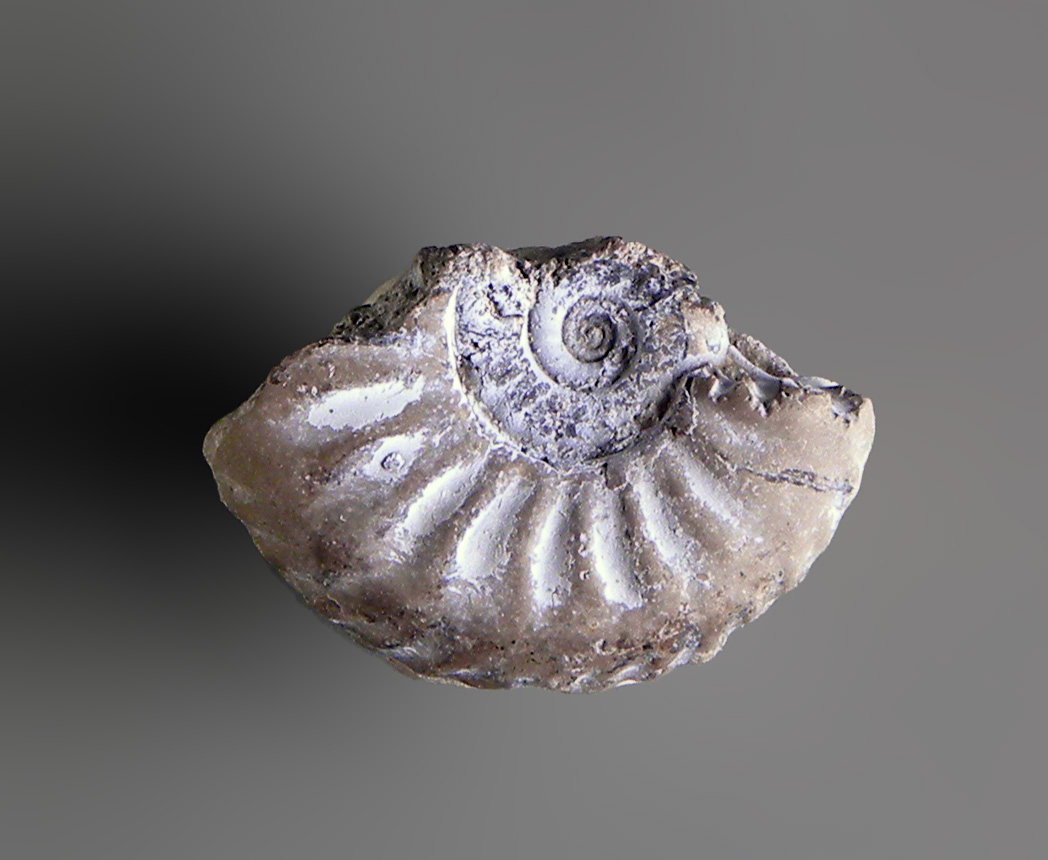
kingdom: Animalia
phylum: Mollusca
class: Cephalopoda
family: Amaltheidae
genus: Amaltheus
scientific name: Amaltheus stokesi
